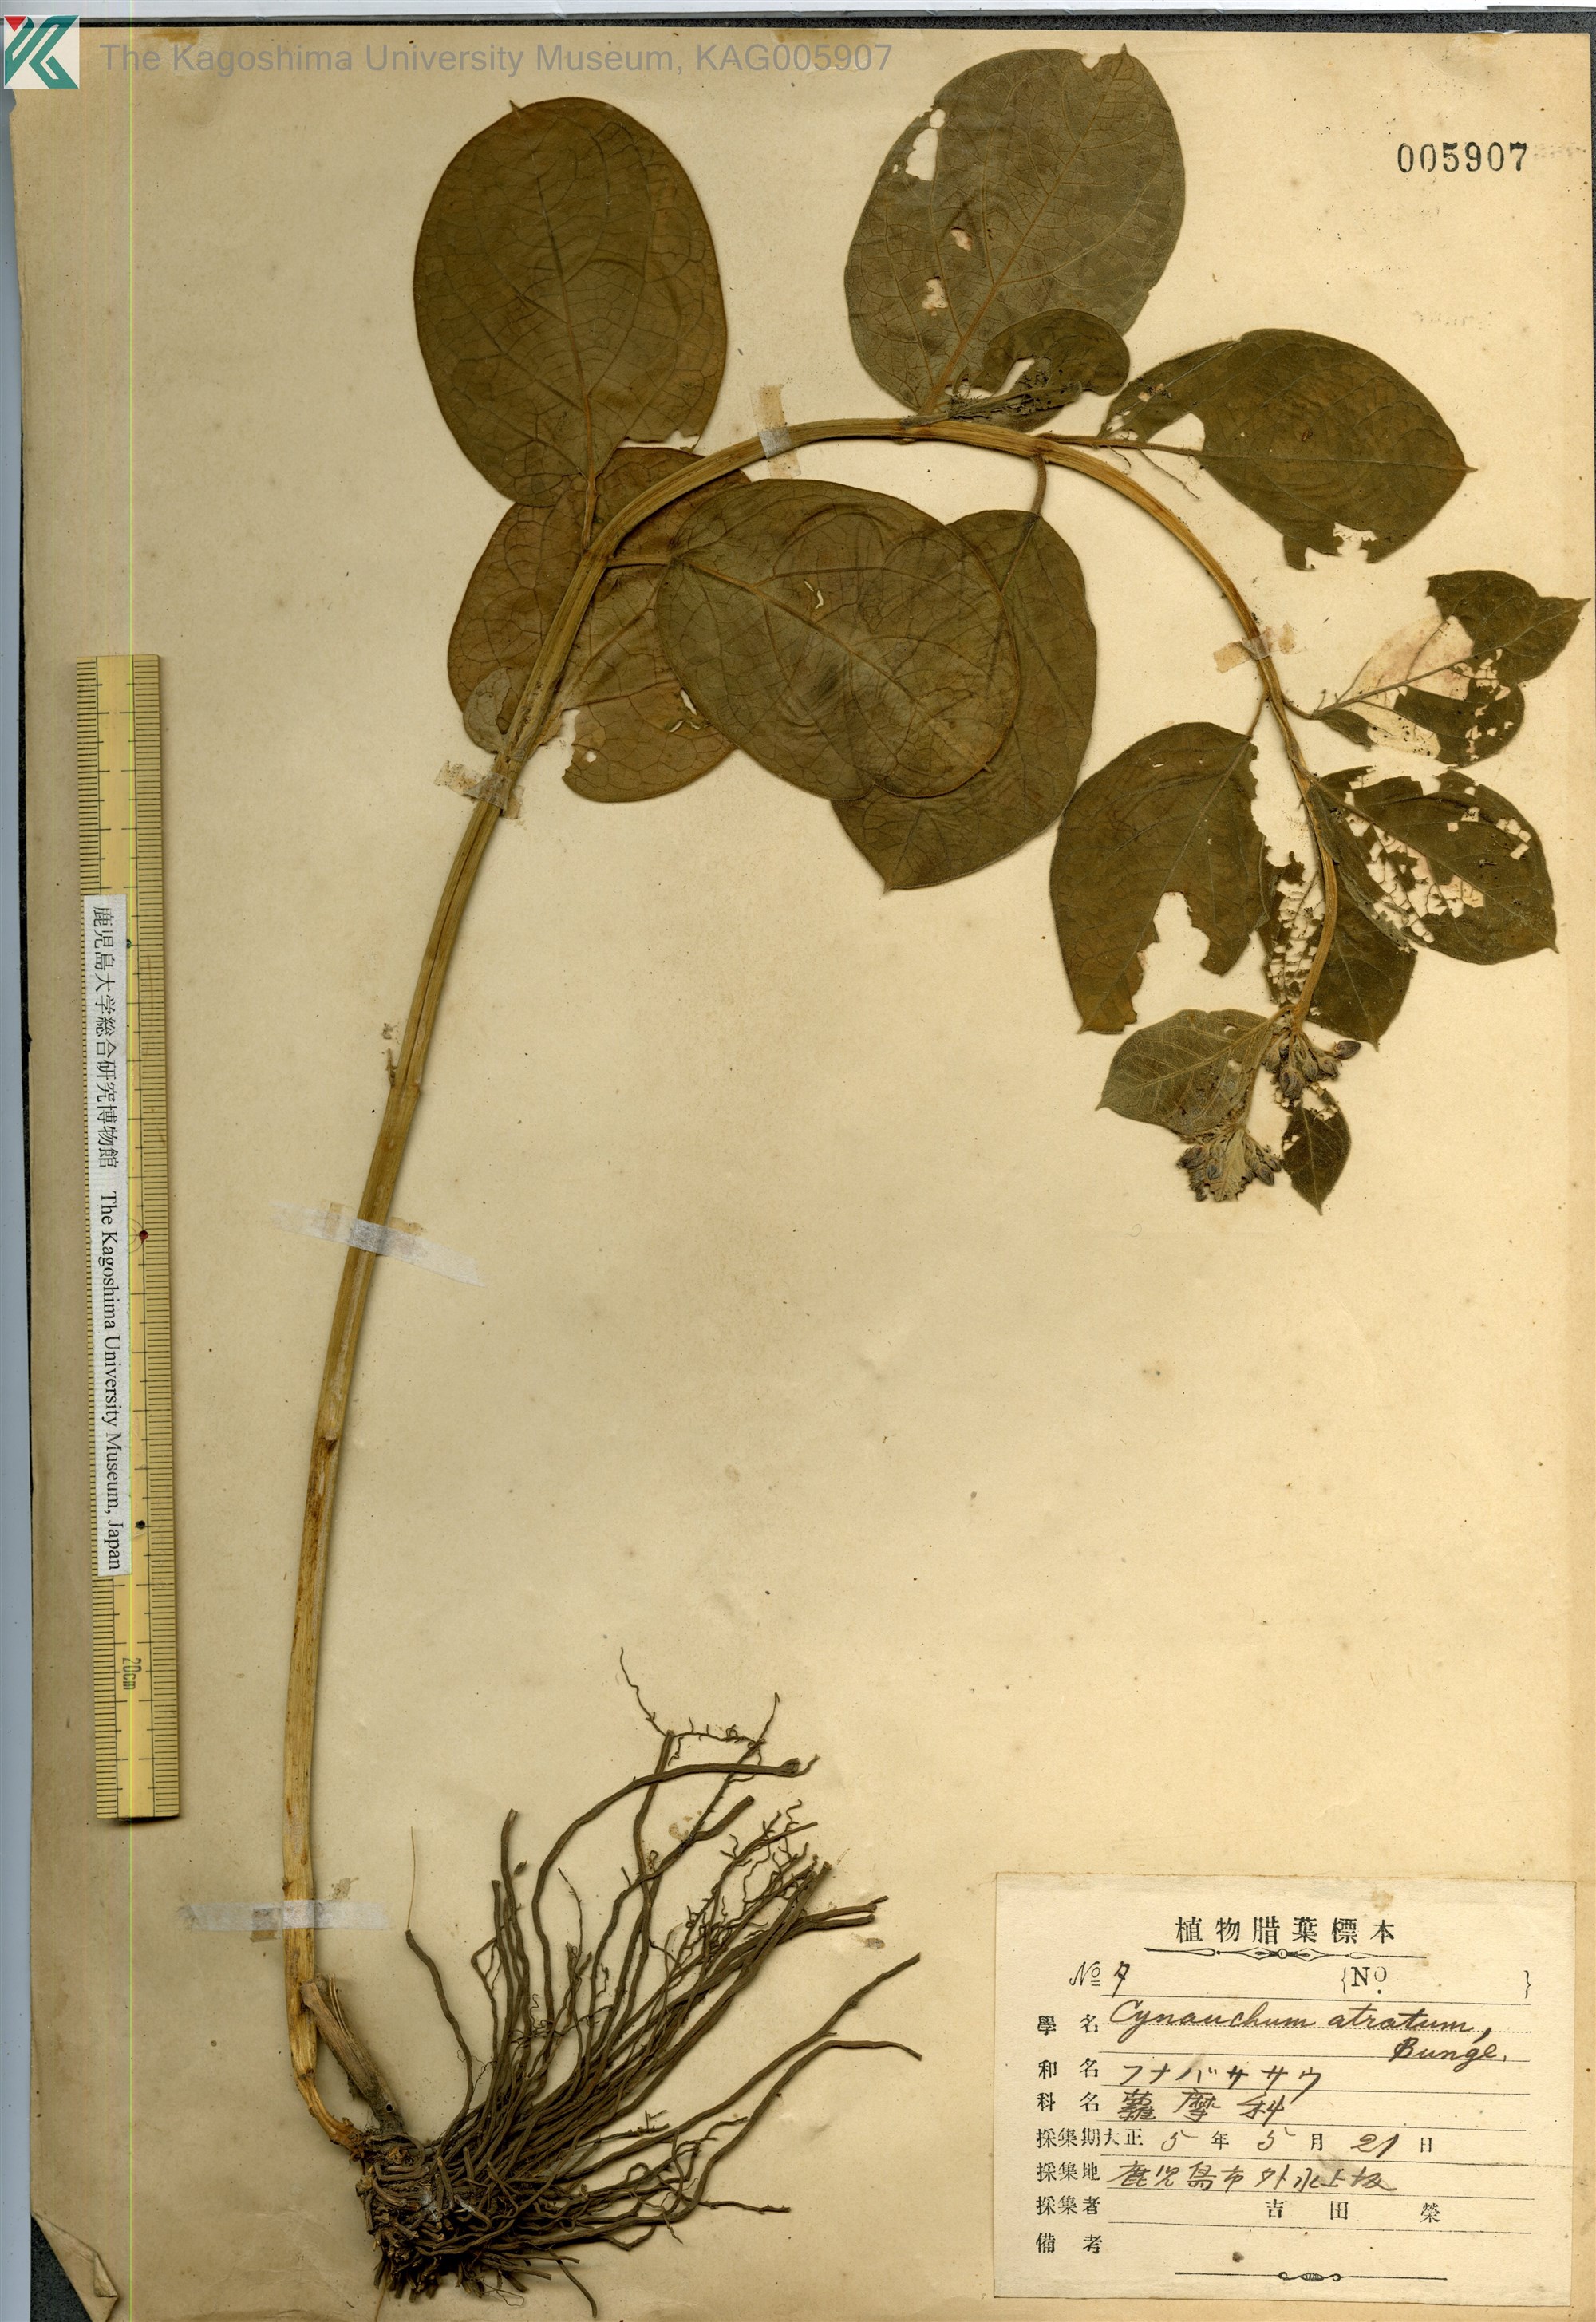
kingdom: Plantae
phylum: Tracheophyta
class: Magnoliopsida
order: Gentianales
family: Apocynaceae
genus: Vincetoxicum
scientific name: Vincetoxicum atratum
